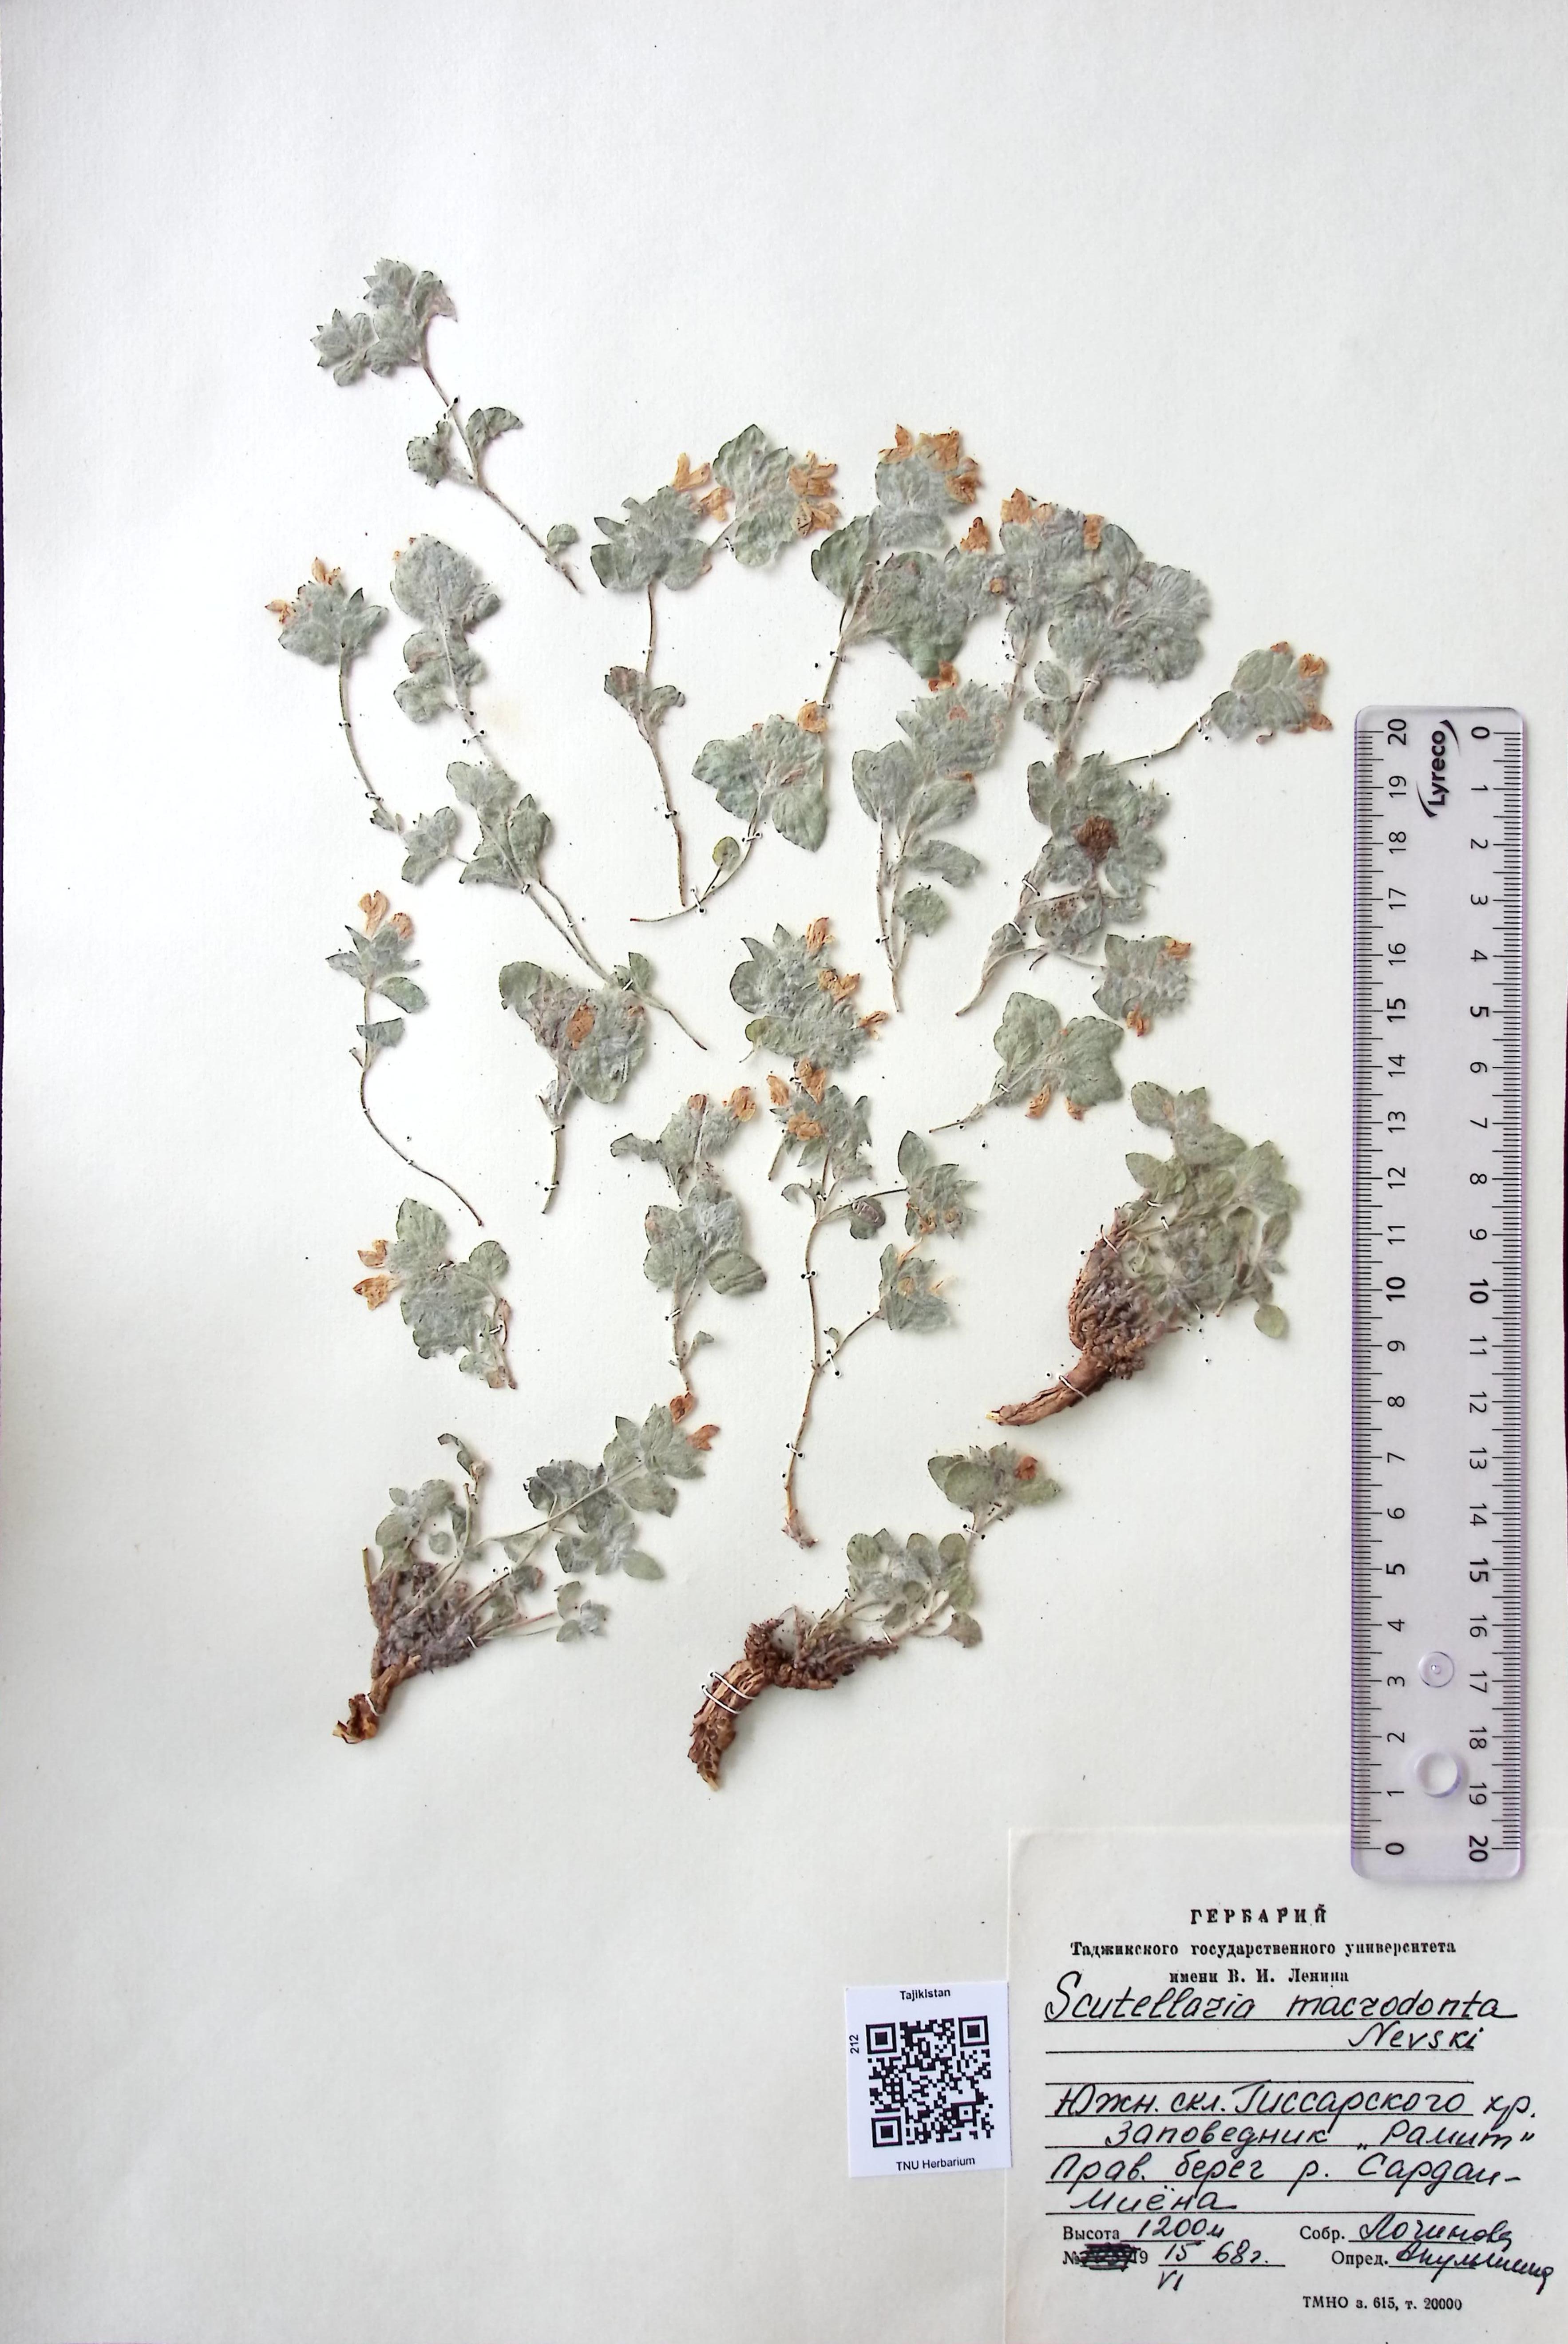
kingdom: Plantae
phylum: Tracheophyta
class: Magnoliopsida
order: Lamiales
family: Lamiaceae
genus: Scutellaria
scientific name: Scutellaria poecilantha
